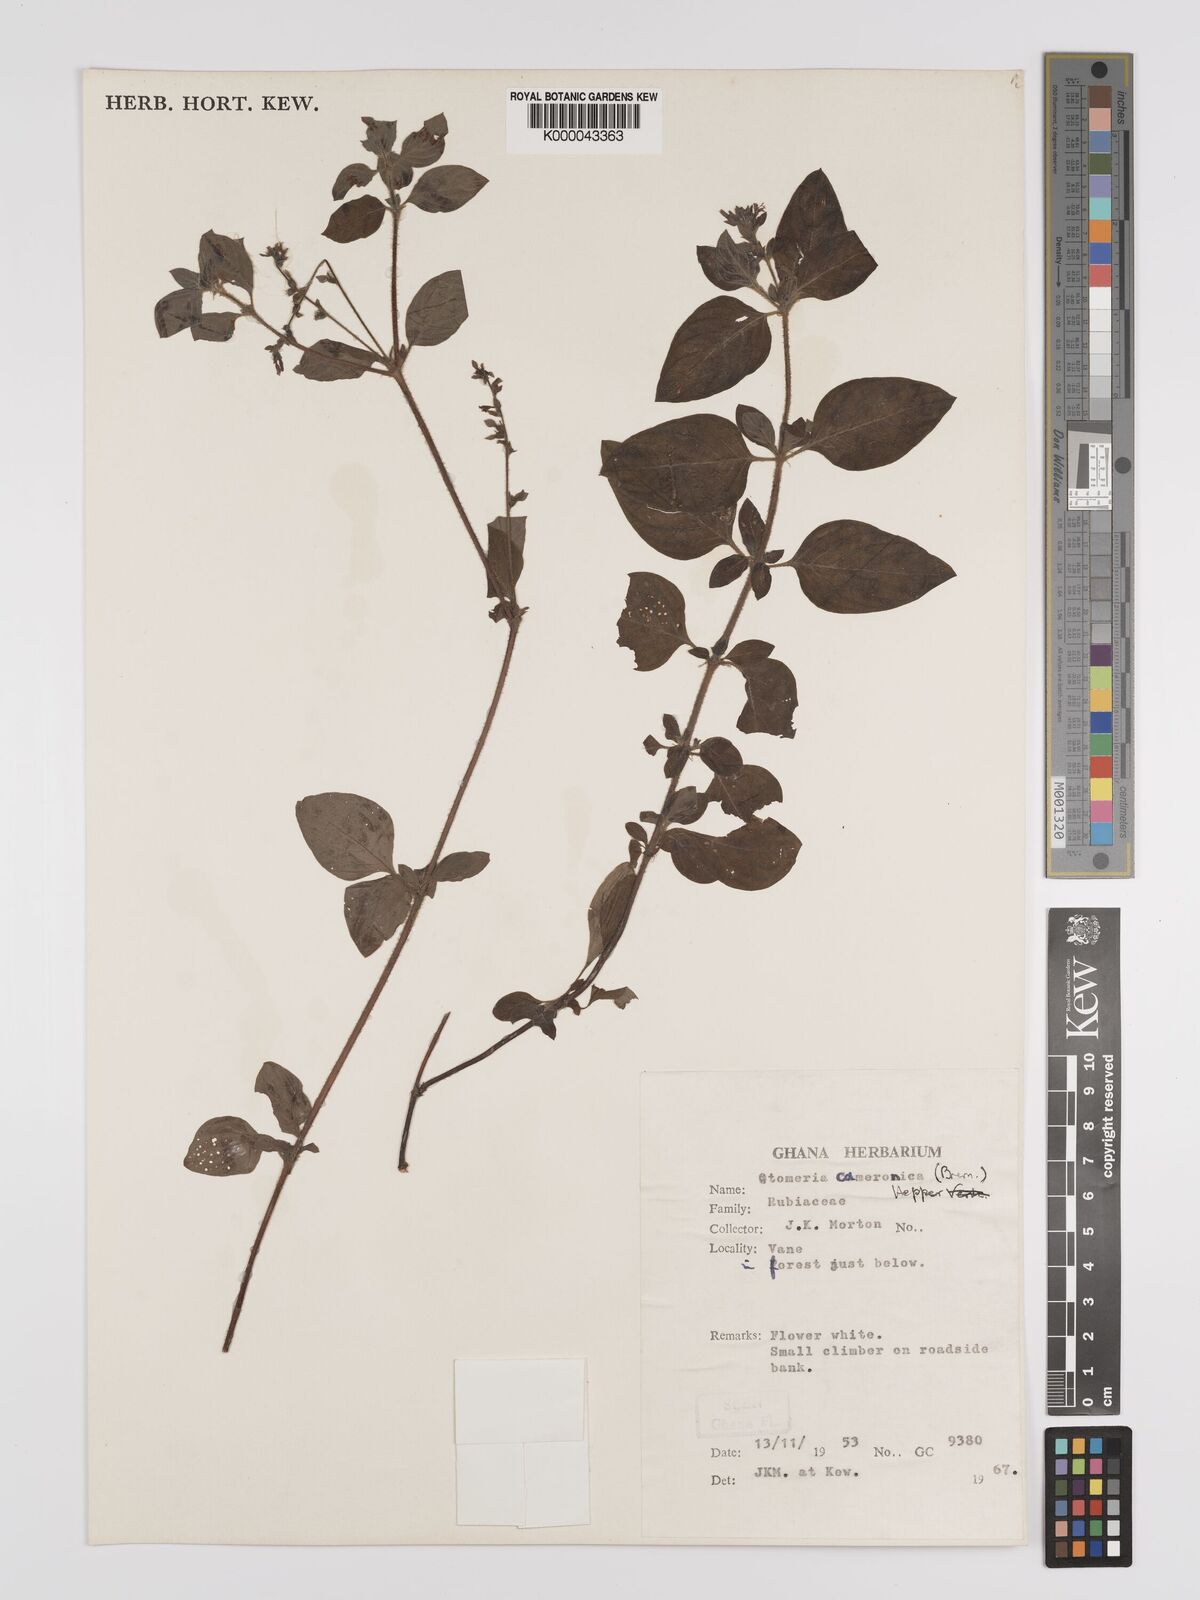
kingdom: Plantae
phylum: Tracheophyta
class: Magnoliopsida
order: Gentianales
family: Rubiaceae
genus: Otomeria
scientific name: Otomeria cameronica
